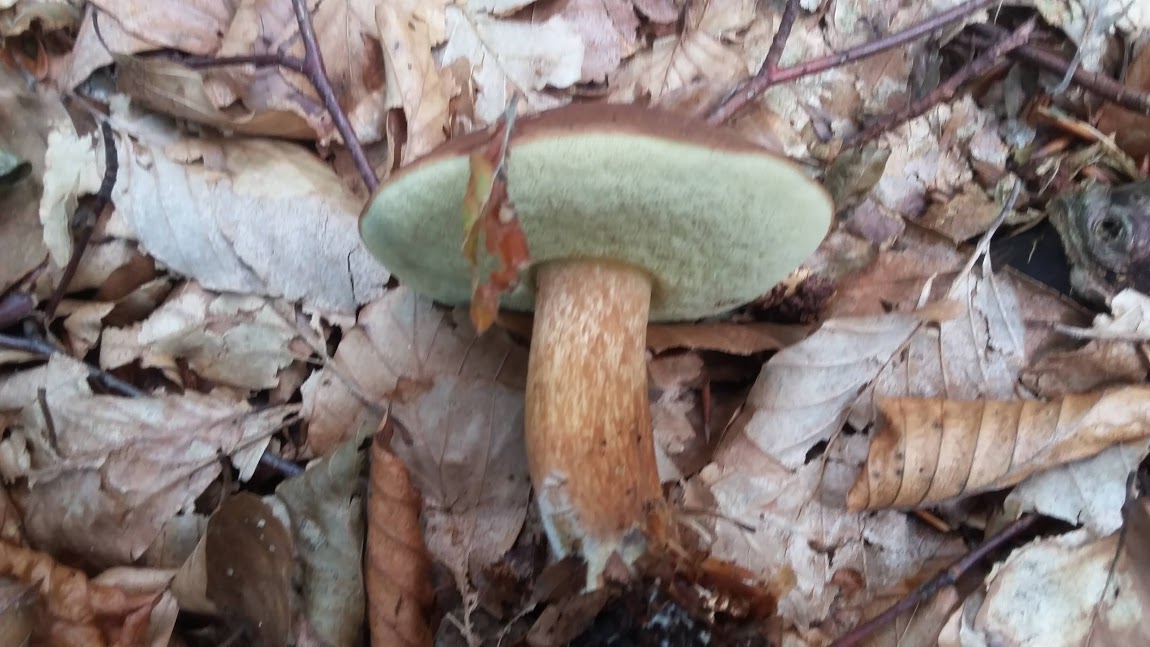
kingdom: Fungi
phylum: Basidiomycota
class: Agaricomycetes
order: Boletales
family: Boletaceae
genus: Imleria
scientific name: Imleria badia
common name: brunstokket rørhat
